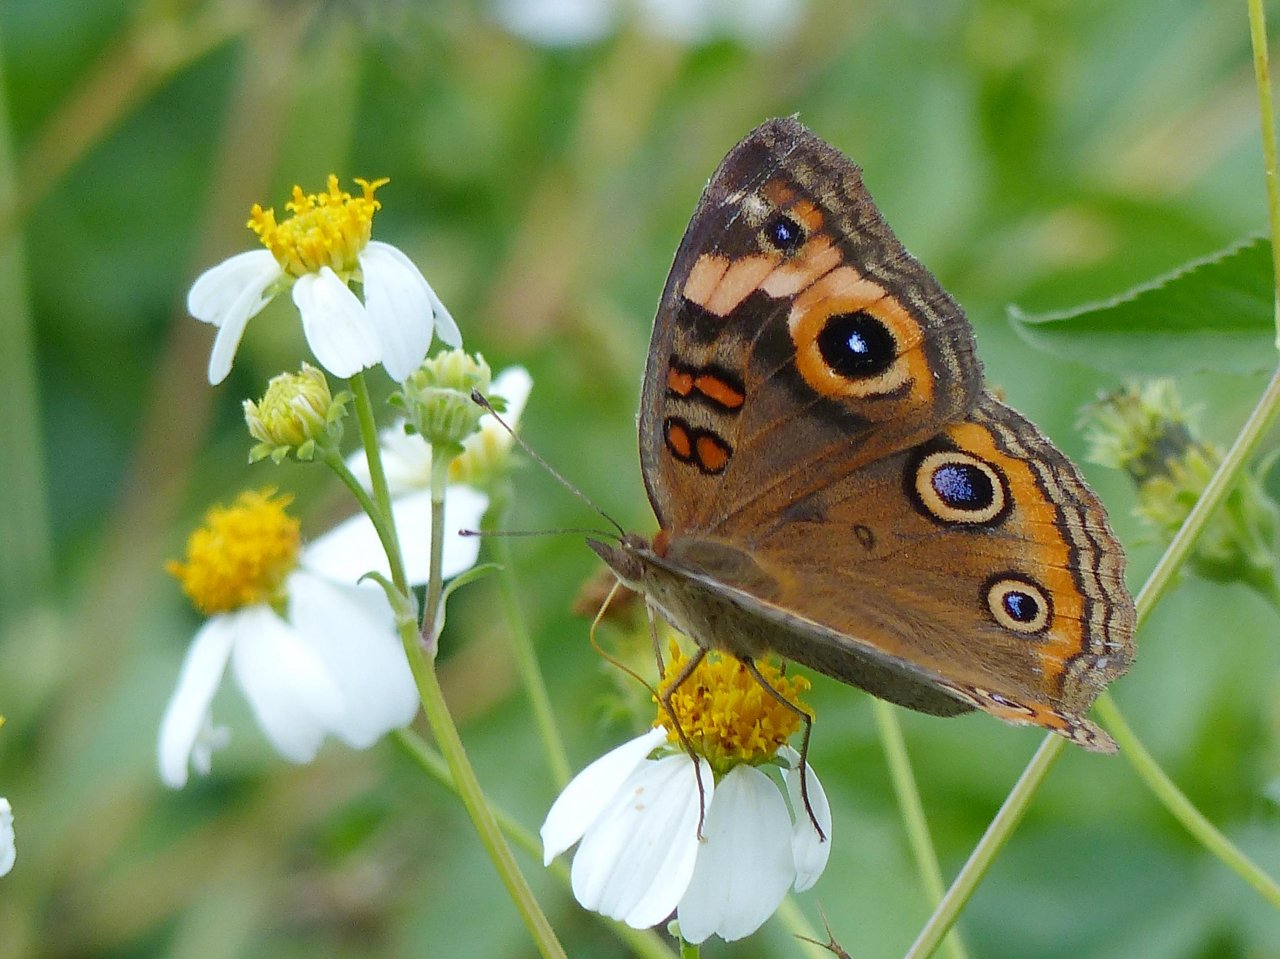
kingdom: Animalia
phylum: Arthropoda
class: Insecta
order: Lepidoptera
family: Nymphalidae
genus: Junonia
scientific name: Junonia evarete
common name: Mangrove Buckeye
